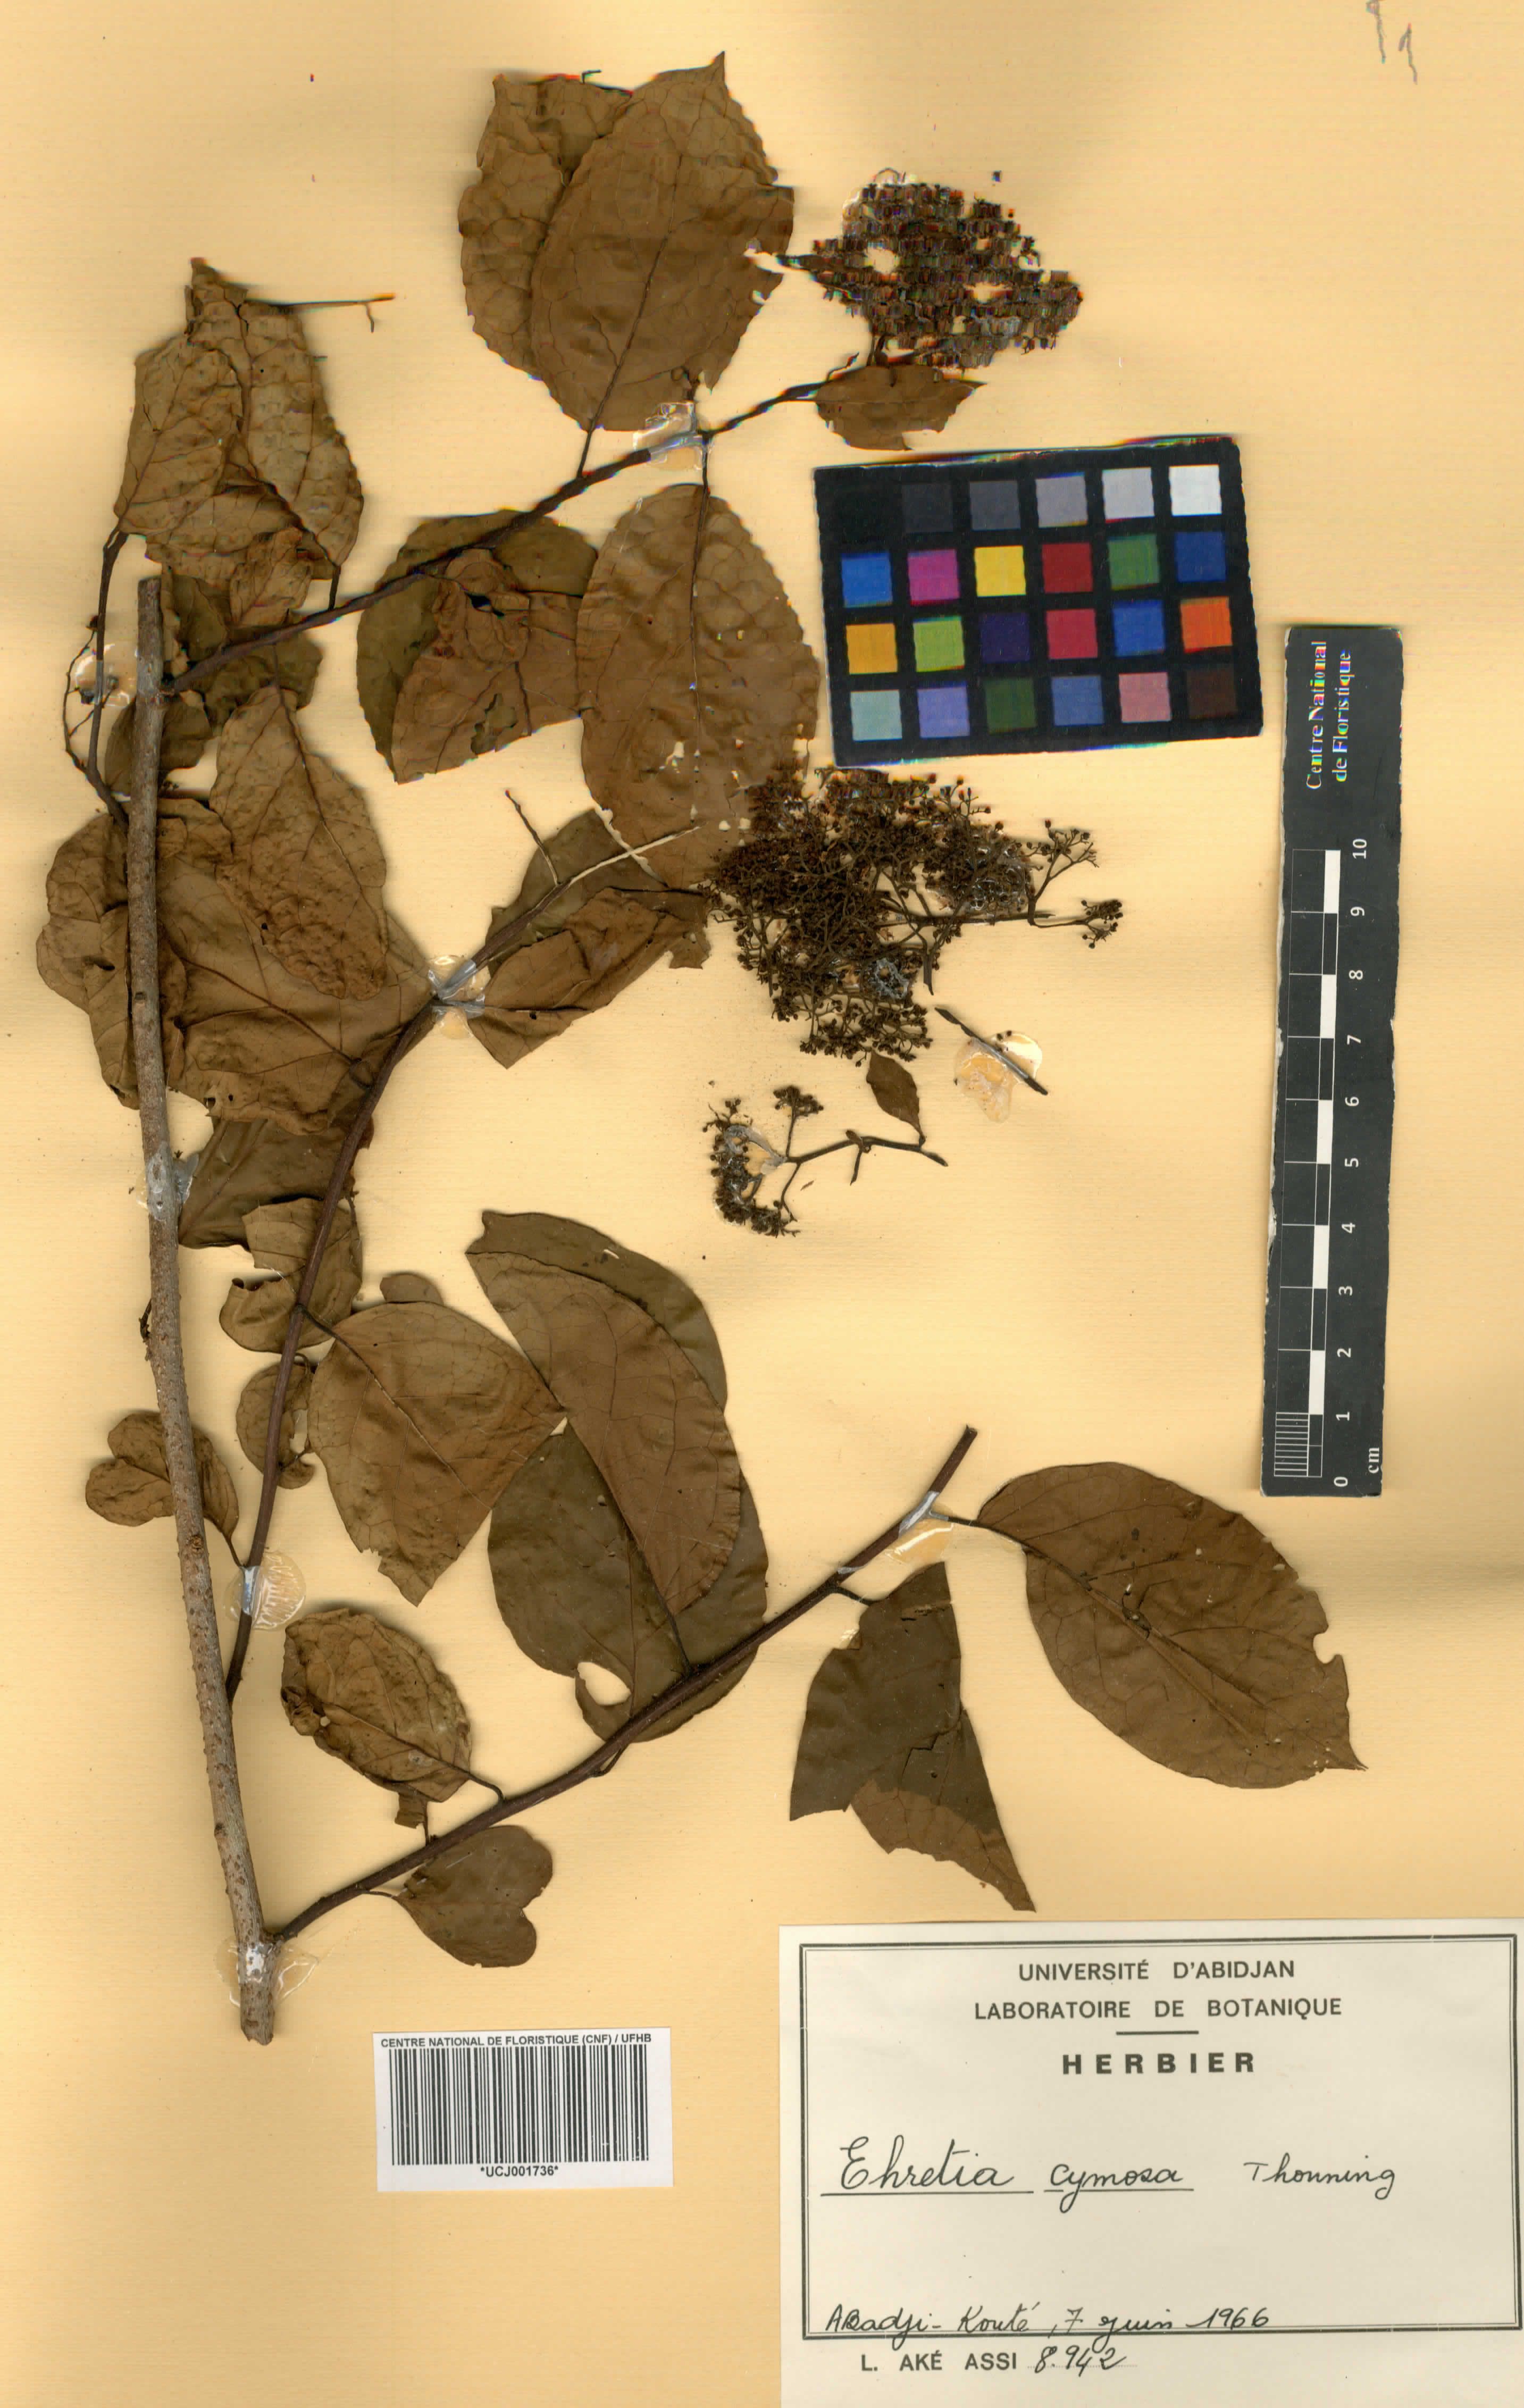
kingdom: Plantae
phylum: Tracheophyta
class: Magnoliopsida
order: Boraginales
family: Ehretiaceae
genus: Ehretia
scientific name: Ehretia cymosa
